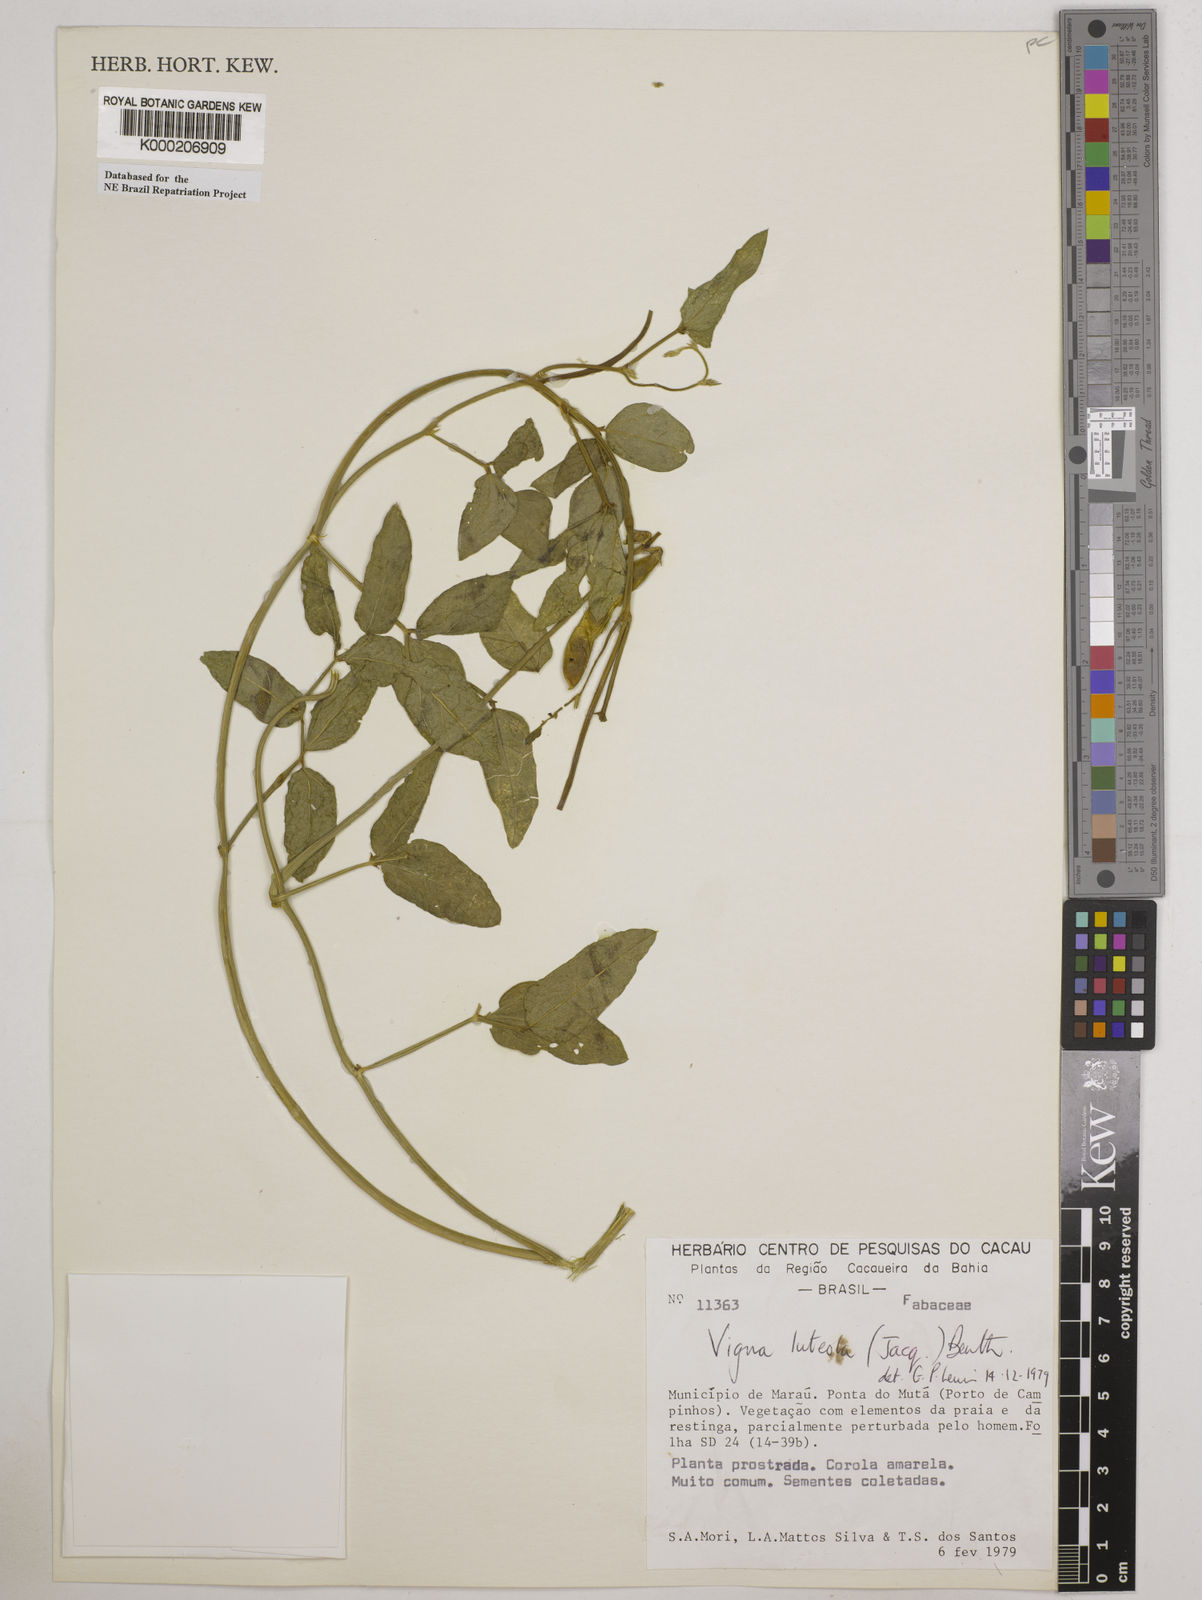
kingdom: Plantae
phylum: Tracheophyta
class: Magnoliopsida
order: Fabales
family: Fabaceae
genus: Vigna
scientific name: Vigna luteola
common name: Hairypod cowpea
